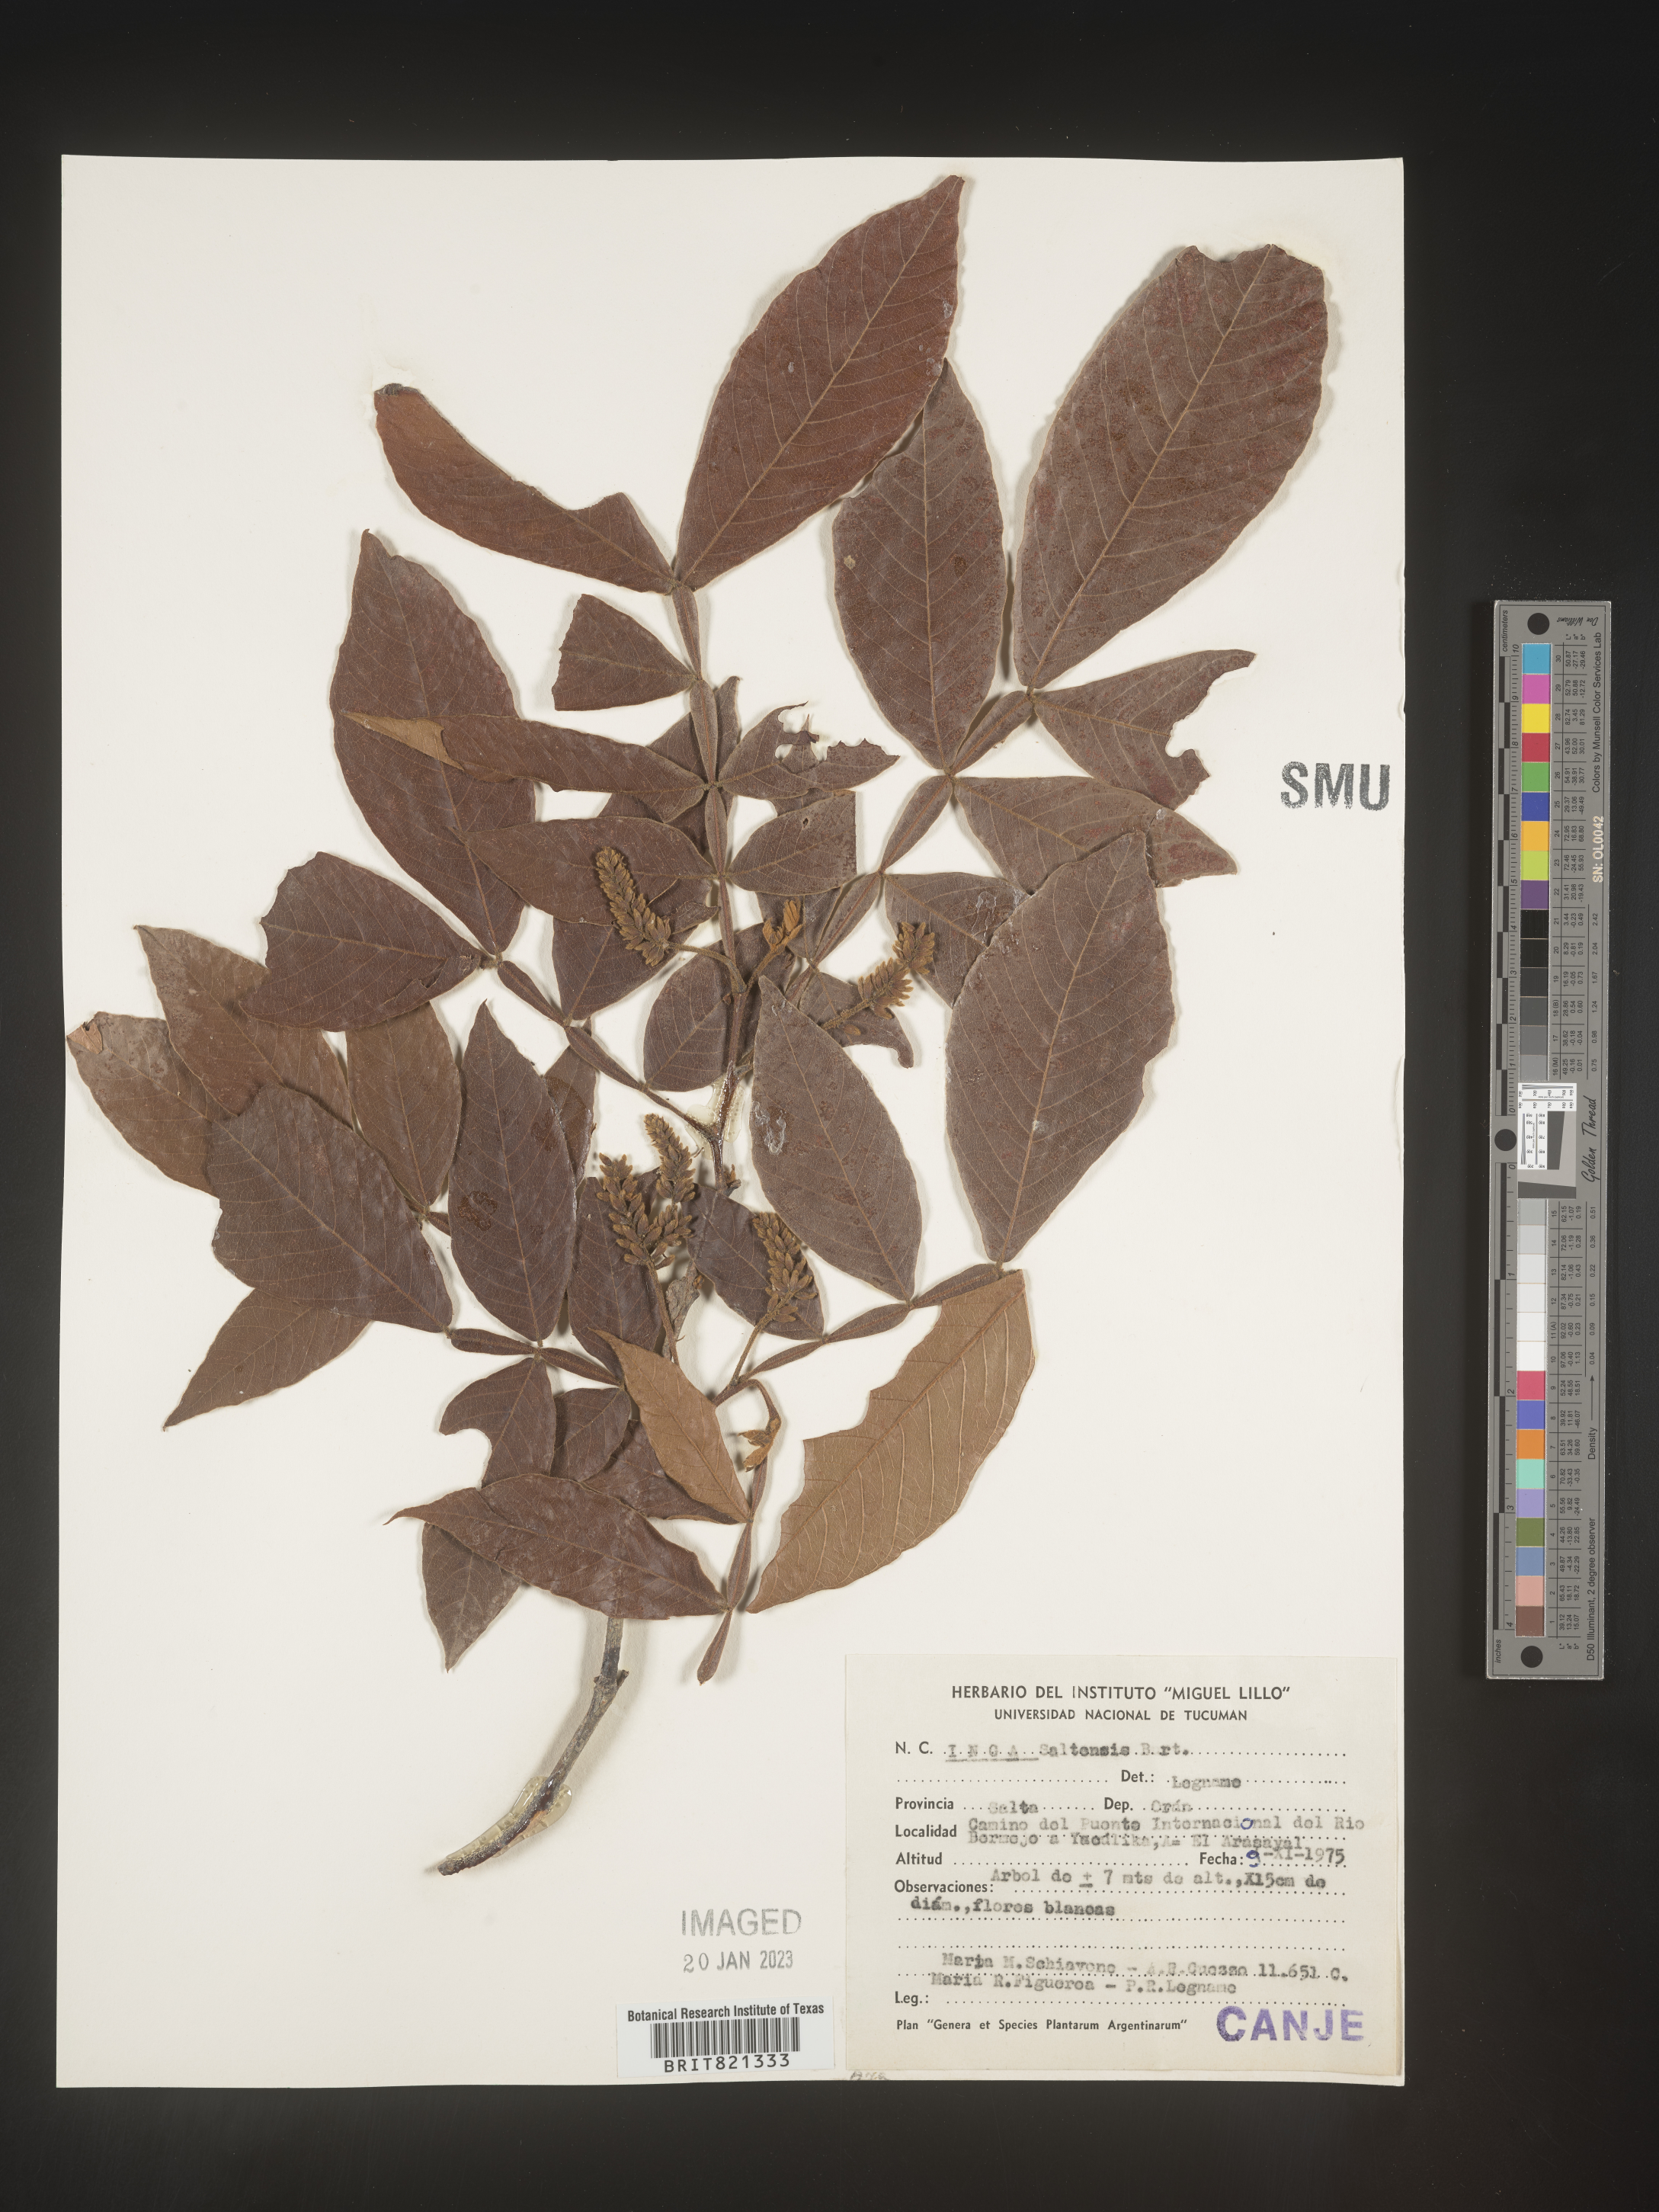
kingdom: Plantae
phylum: Tracheophyta
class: Magnoliopsida
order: Fabales
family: Fabaceae
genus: Inga
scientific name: Inga
